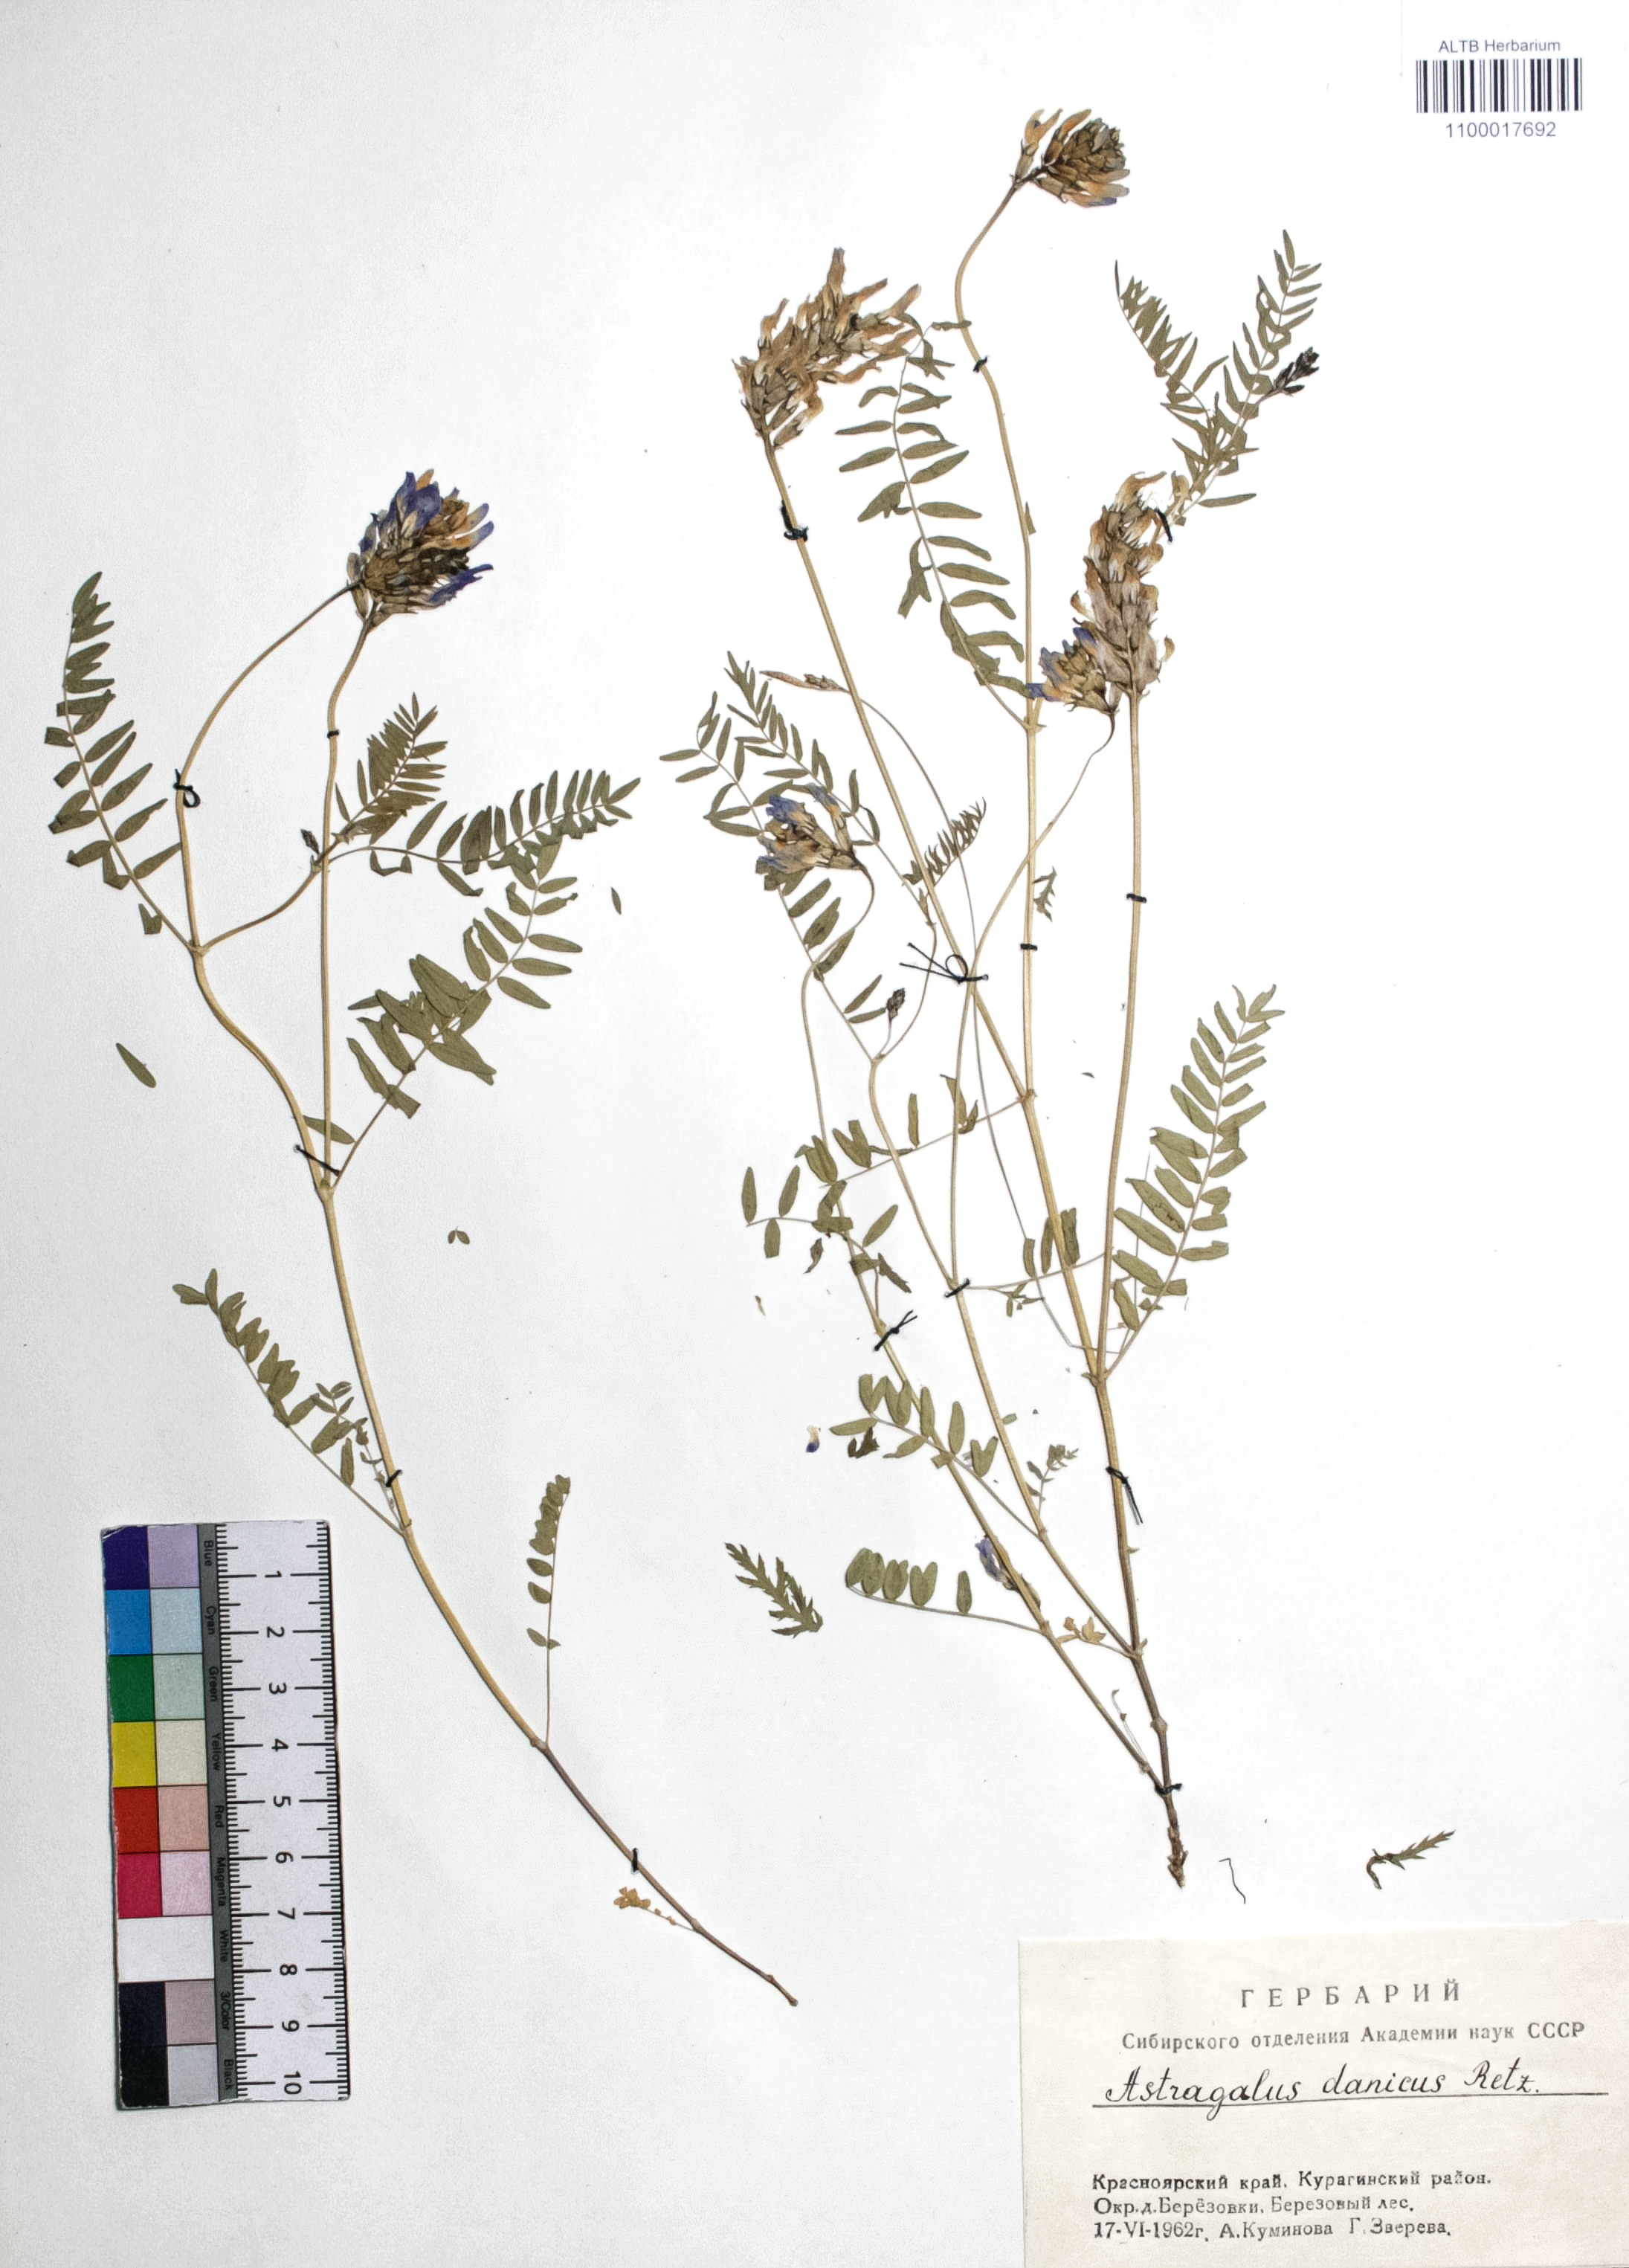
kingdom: Plantae
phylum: Tracheophyta
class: Magnoliopsida
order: Fabales
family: Fabaceae
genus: Astragalus
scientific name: Astragalus danicus
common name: Purple milk-vetch
